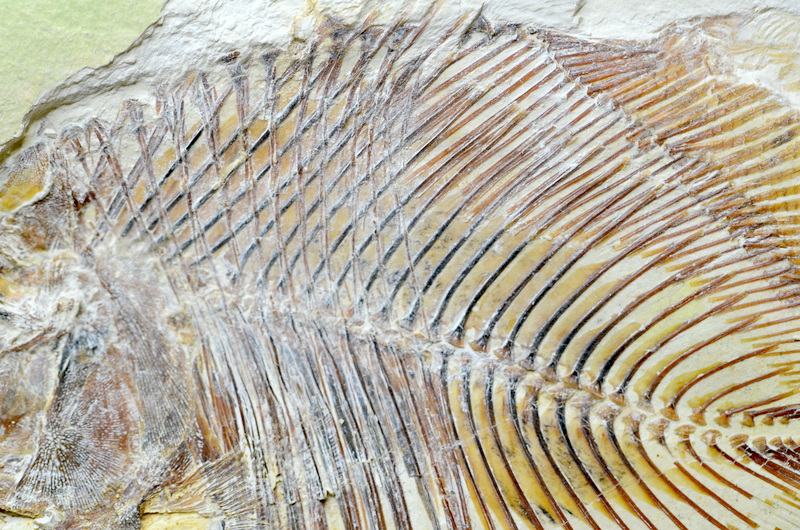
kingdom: Animalia
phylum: Chordata
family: Pycnodontidae
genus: Turbomesodon
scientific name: Turbomesodon relegans
